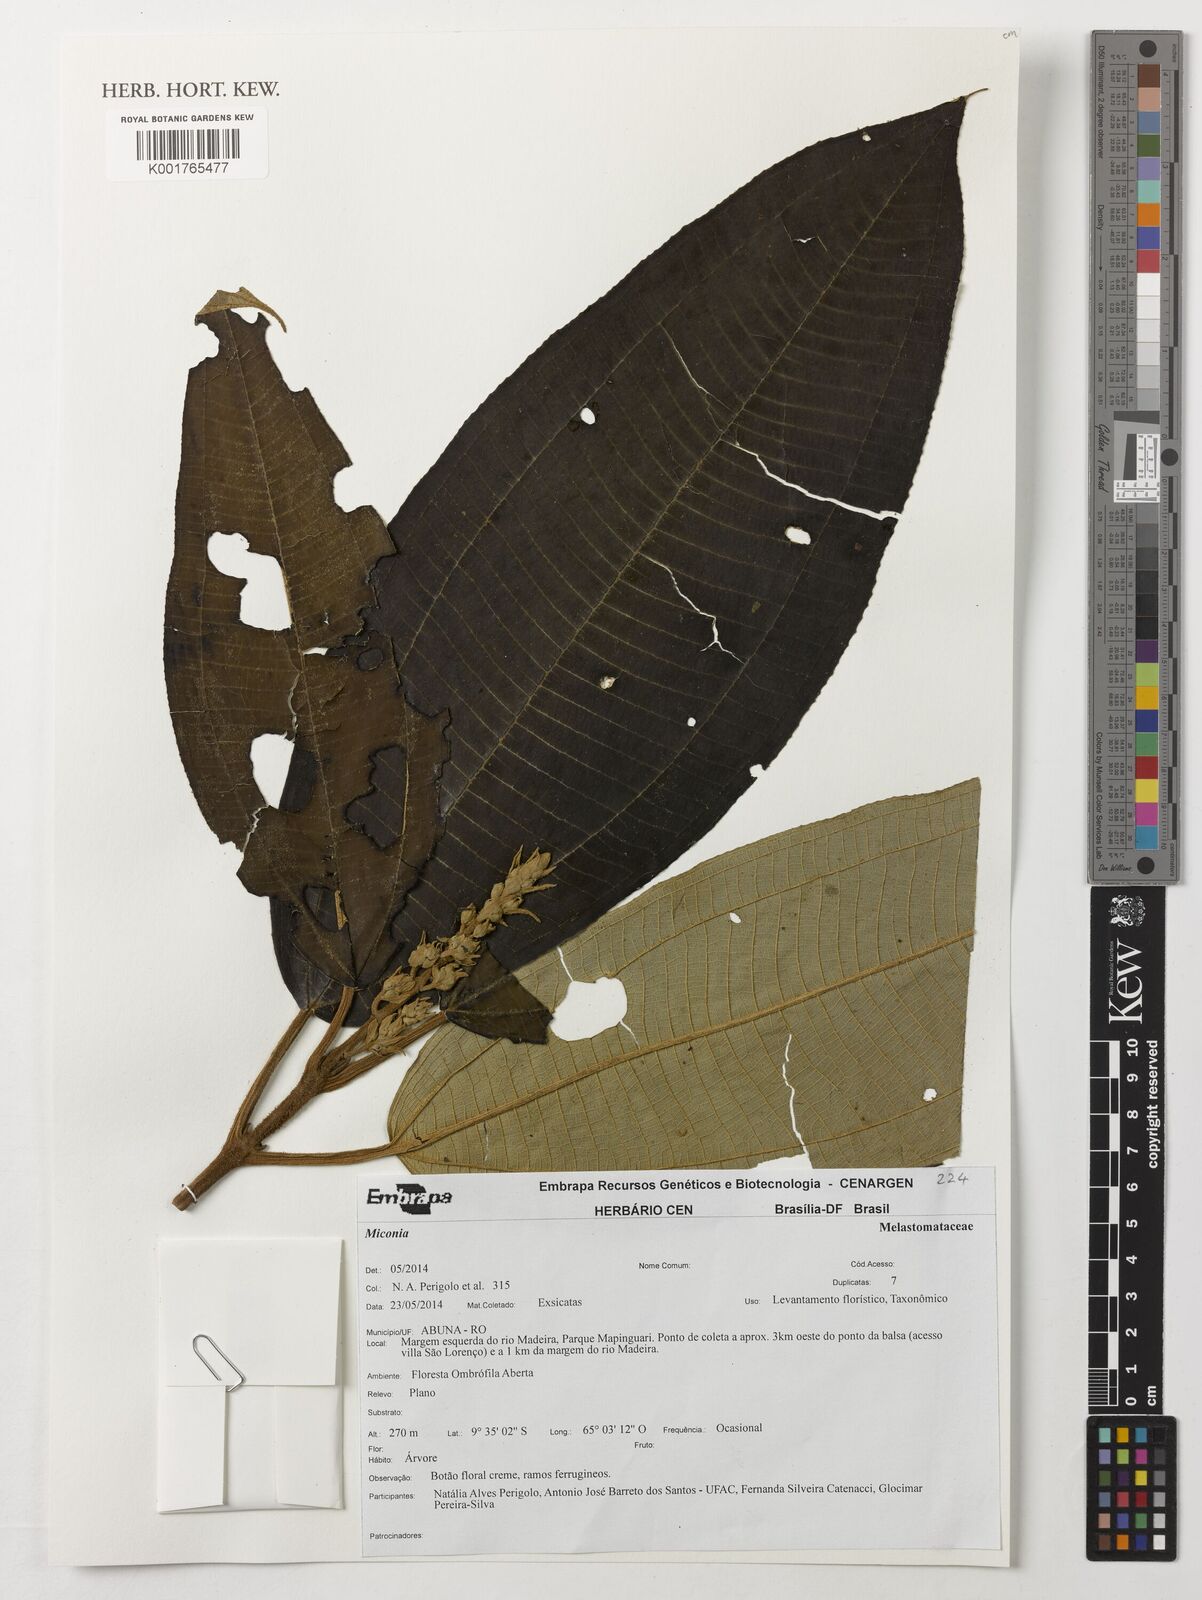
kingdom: Plantae
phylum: Tracheophyta
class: Magnoliopsida
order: Myrtales
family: Melastomataceae
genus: Miconia
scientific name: Miconia
